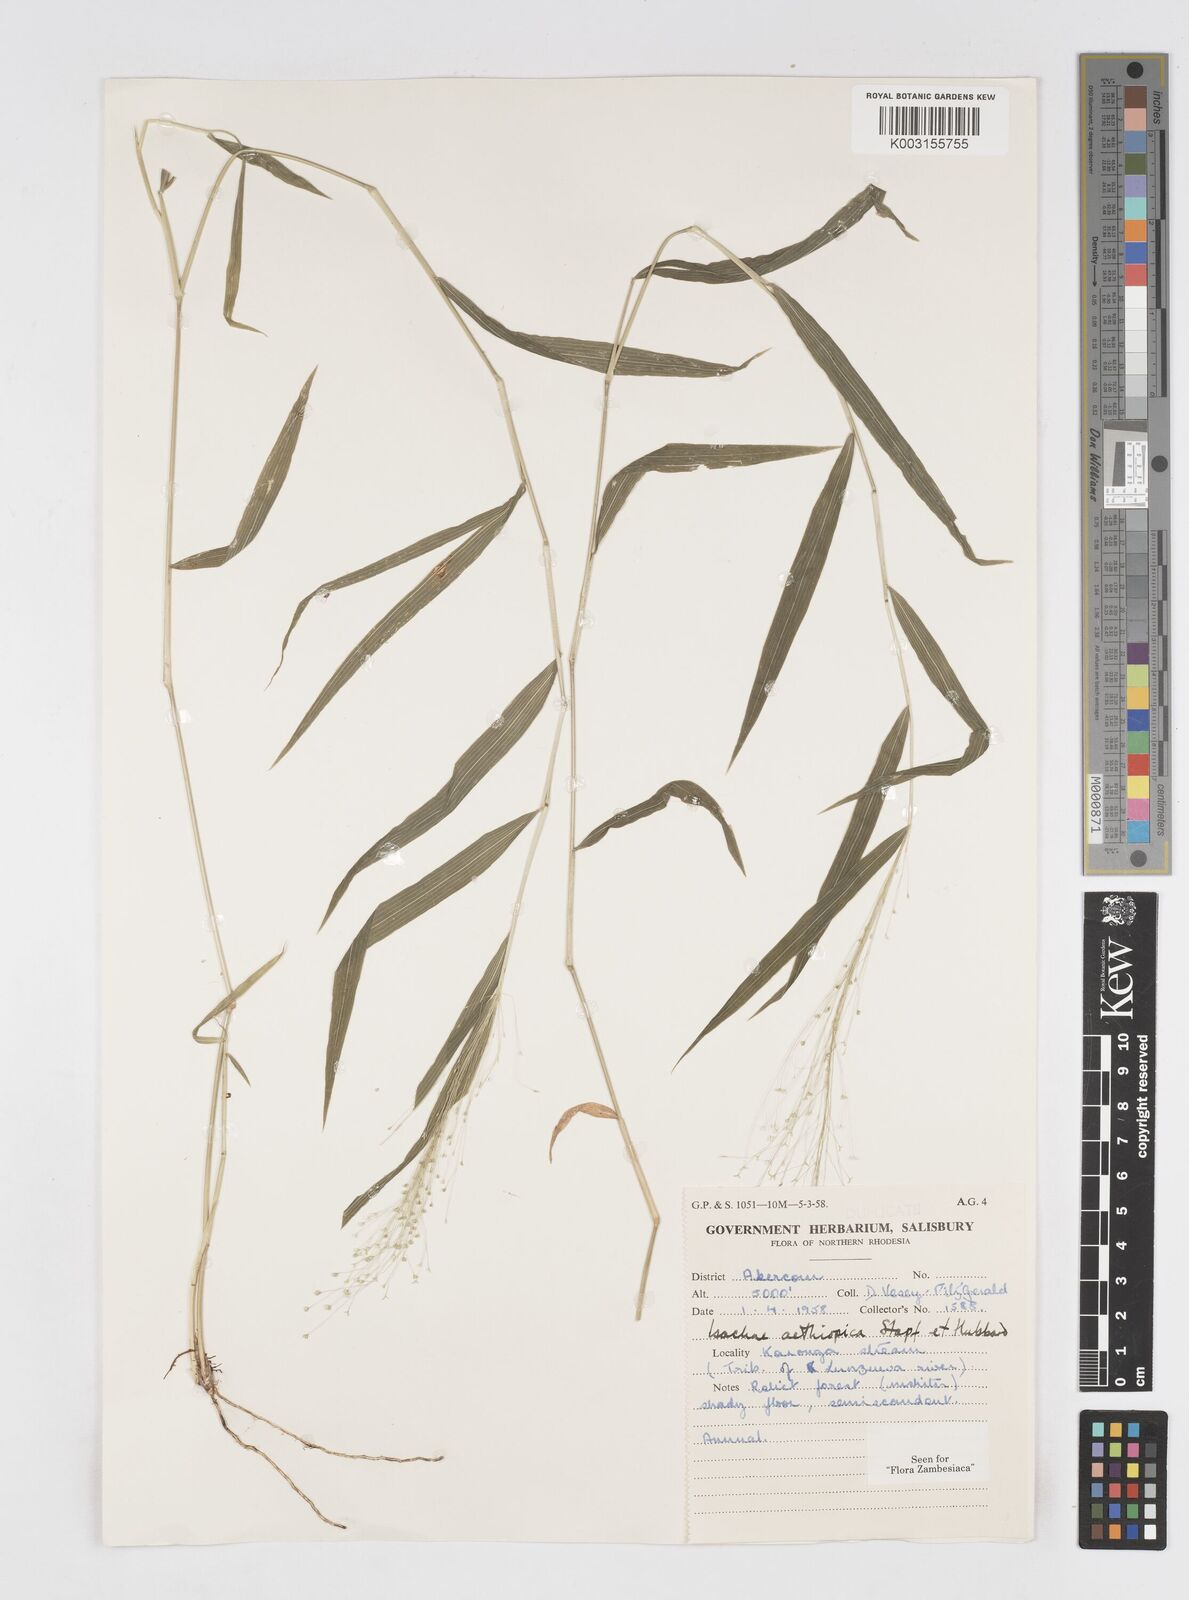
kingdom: Plantae
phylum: Tracheophyta
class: Liliopsida
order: Poales
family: Poaceae
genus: Isachne
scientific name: Isachne mauritiana
